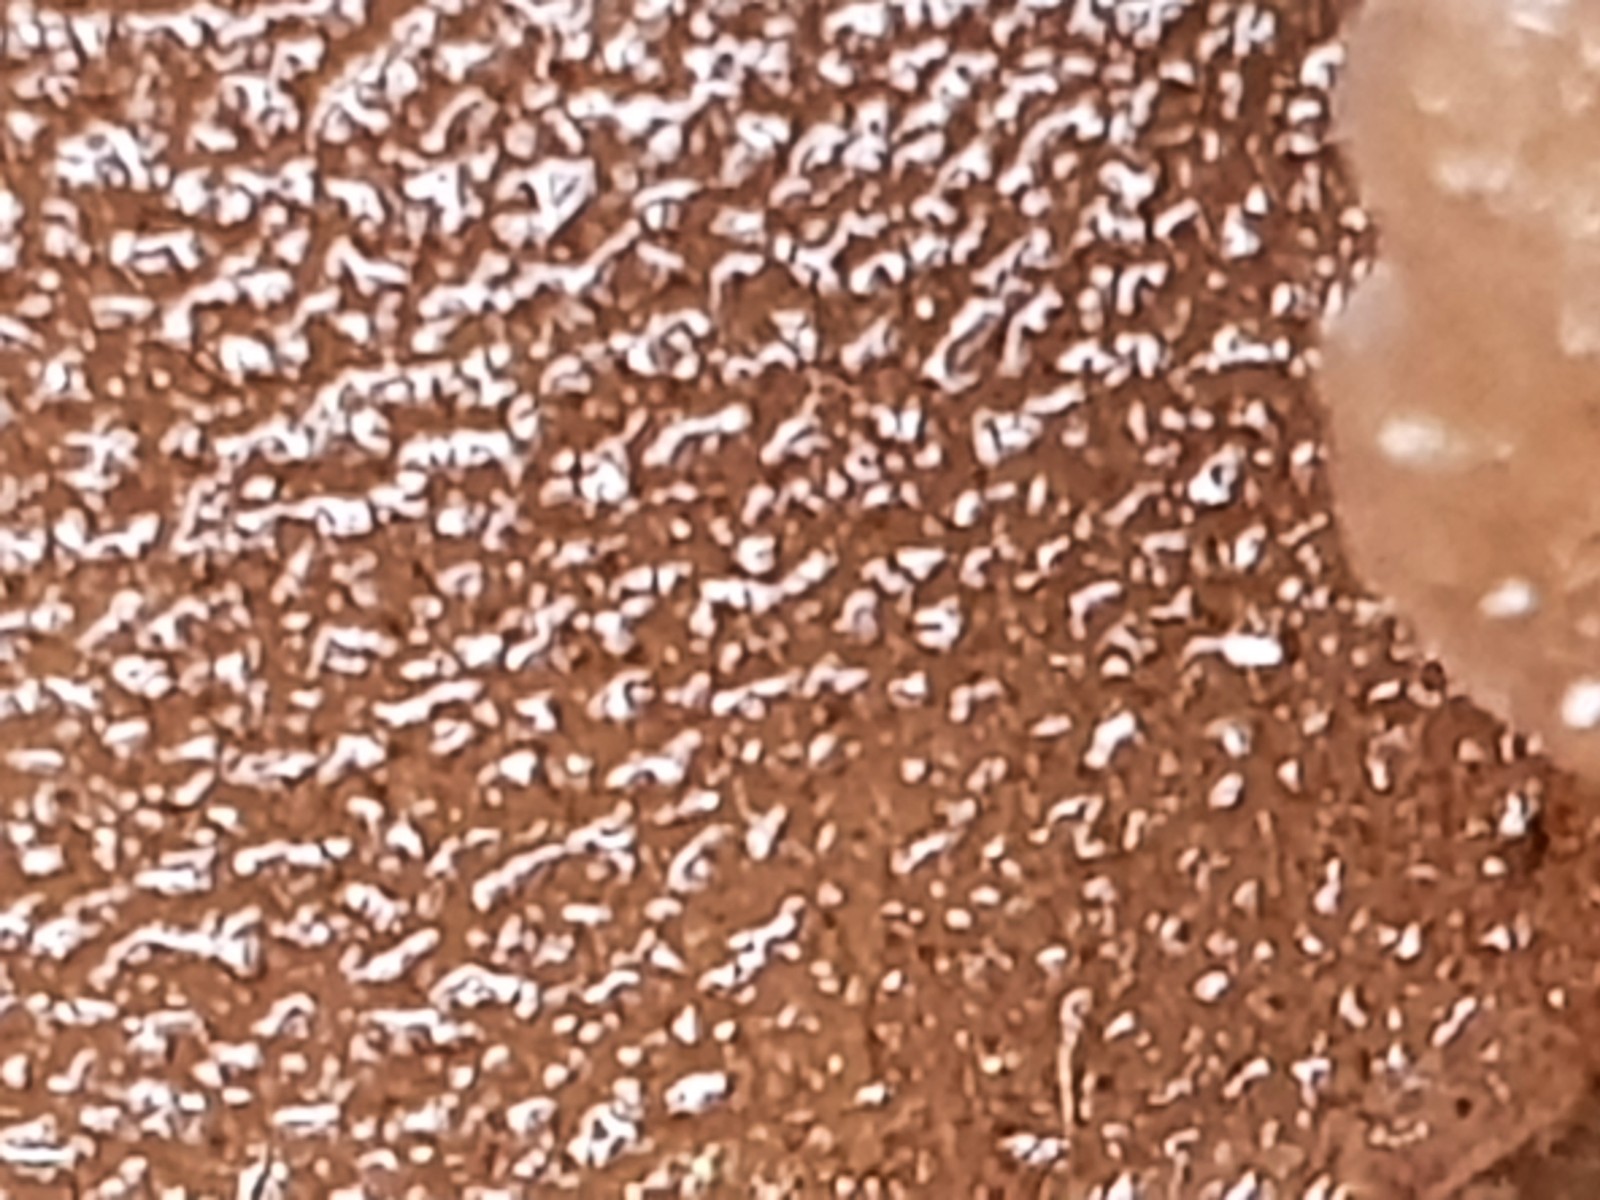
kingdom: Fungi
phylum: Basidiomycota
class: Agaricomycetes
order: Auriculariales
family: Auriculariaceae
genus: Exidia
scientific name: Exidia glandulosa
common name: ege-bævretop
